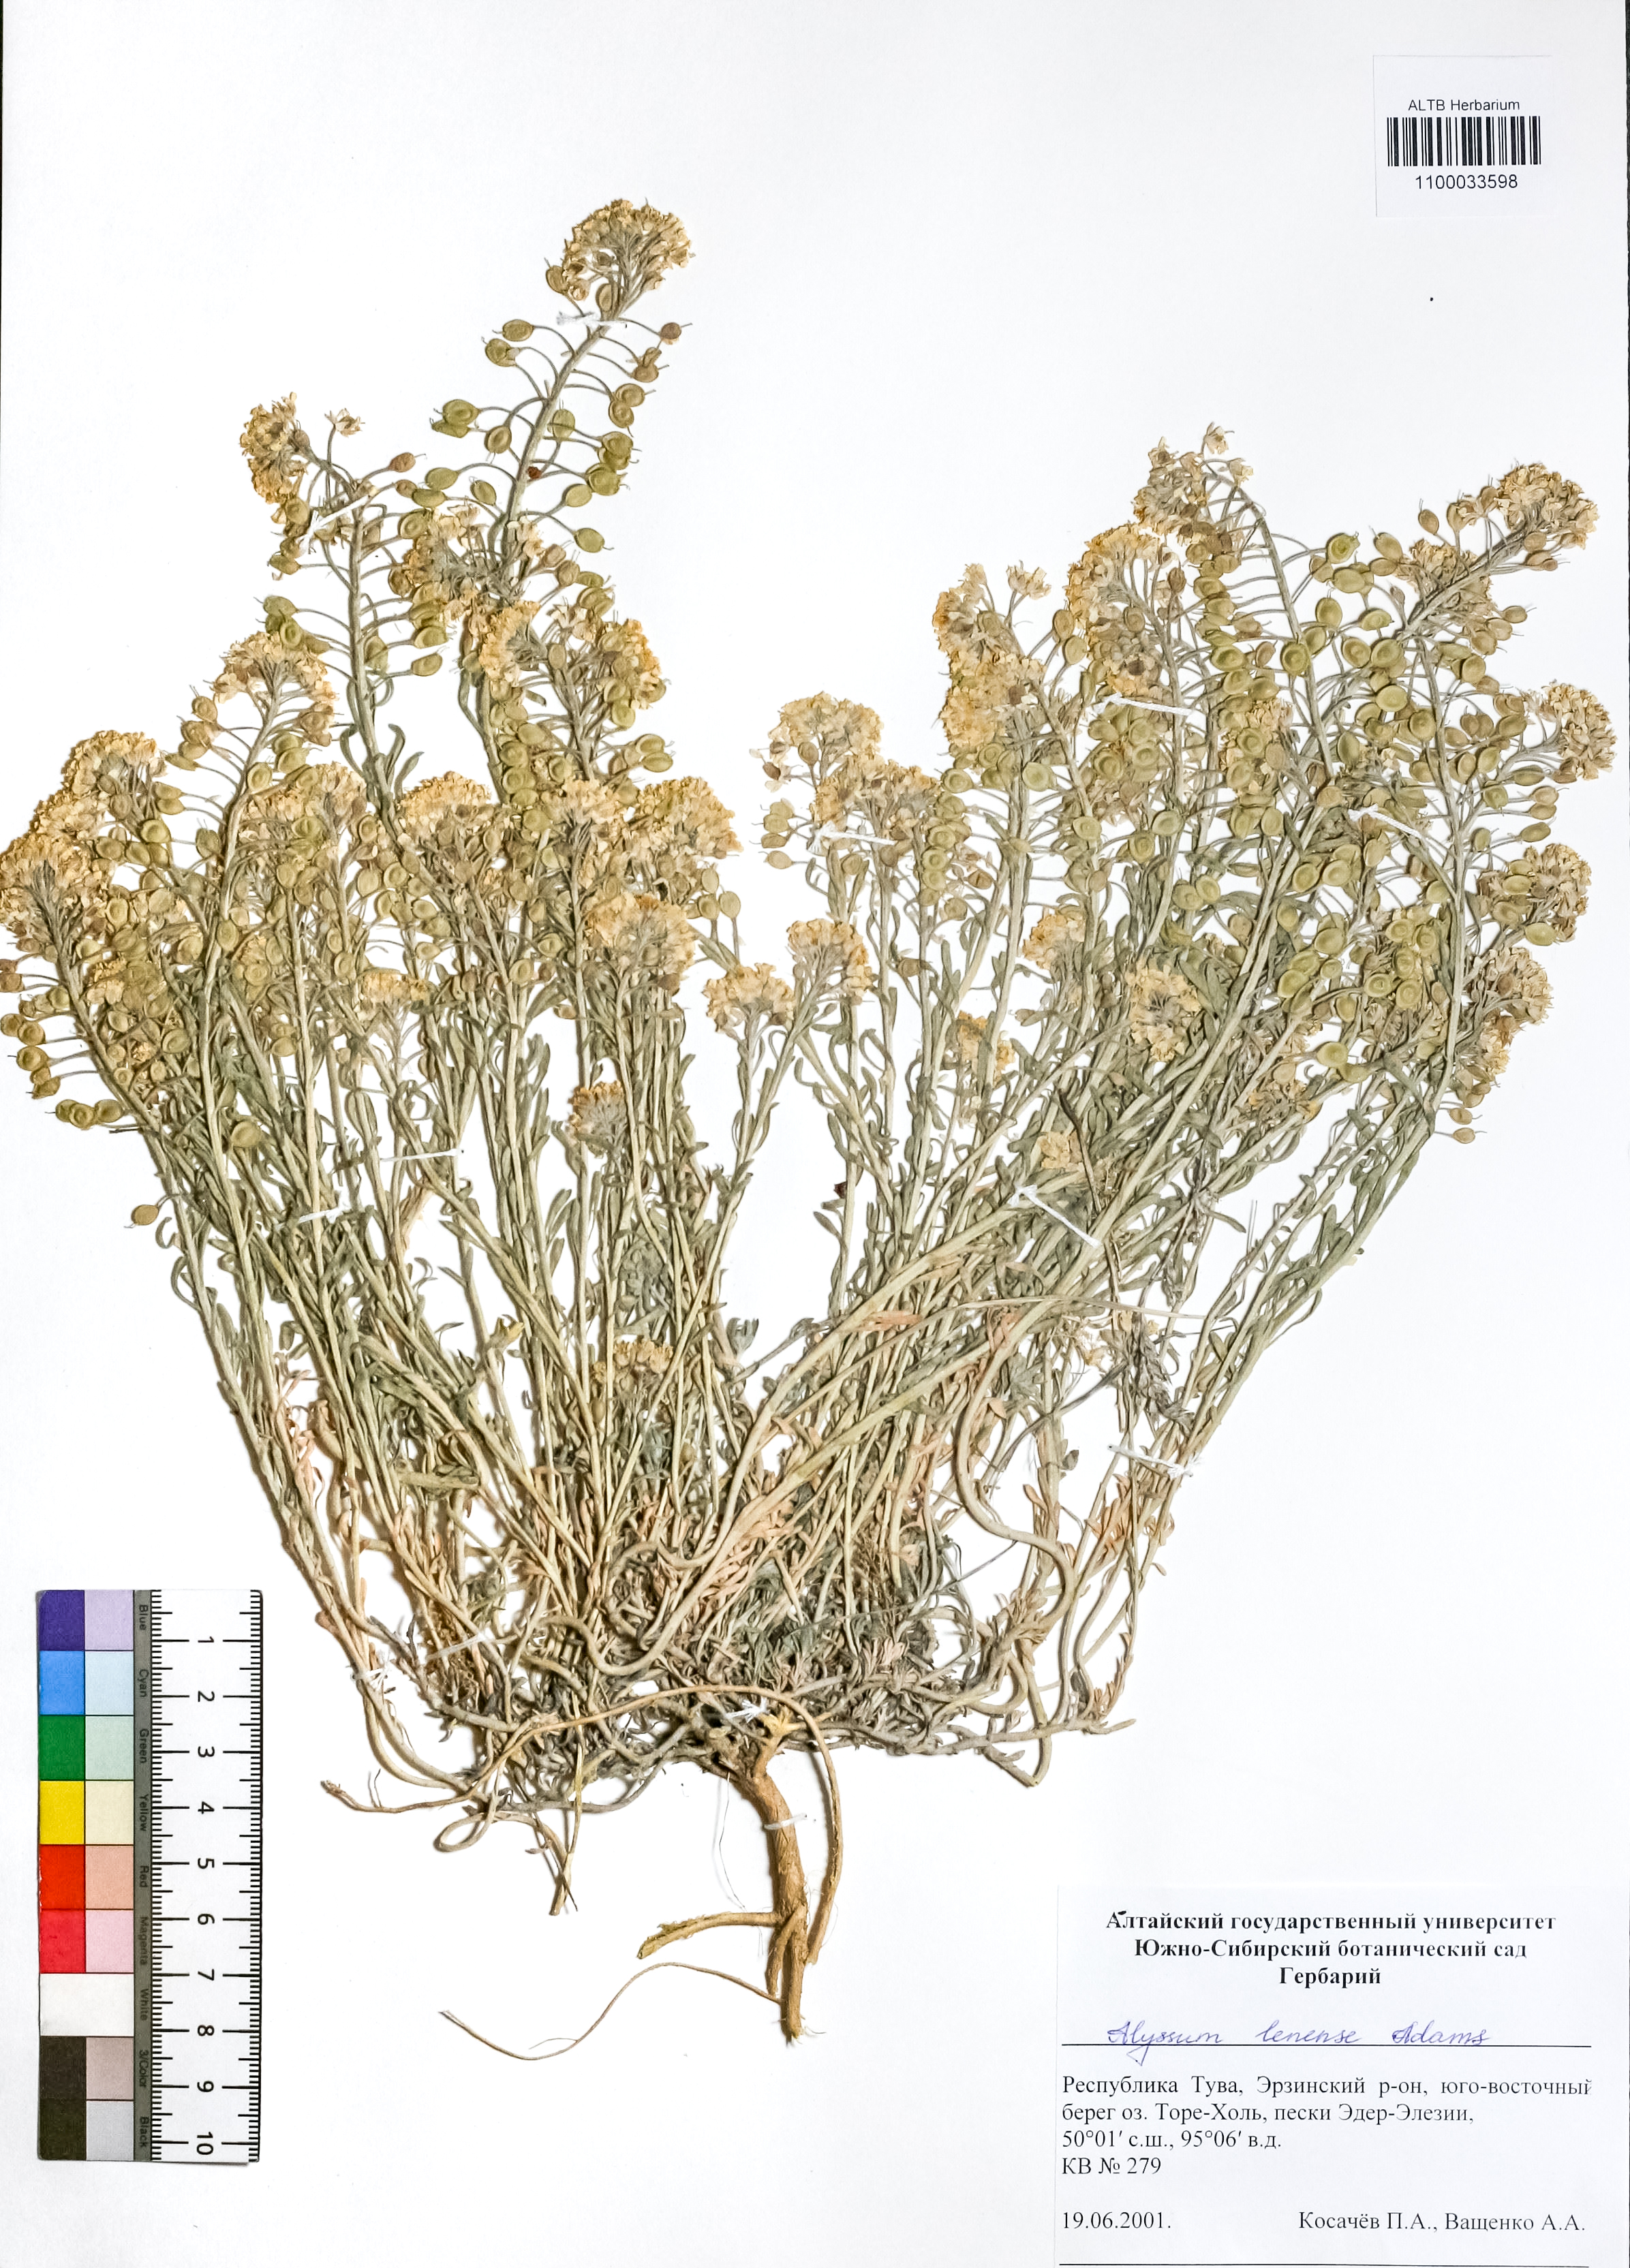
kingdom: Plantae
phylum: Tracheophyta
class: Magnoliopsida
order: Brassicales
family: Brassicaceae
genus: Alyssum
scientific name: Alyssum lenense
